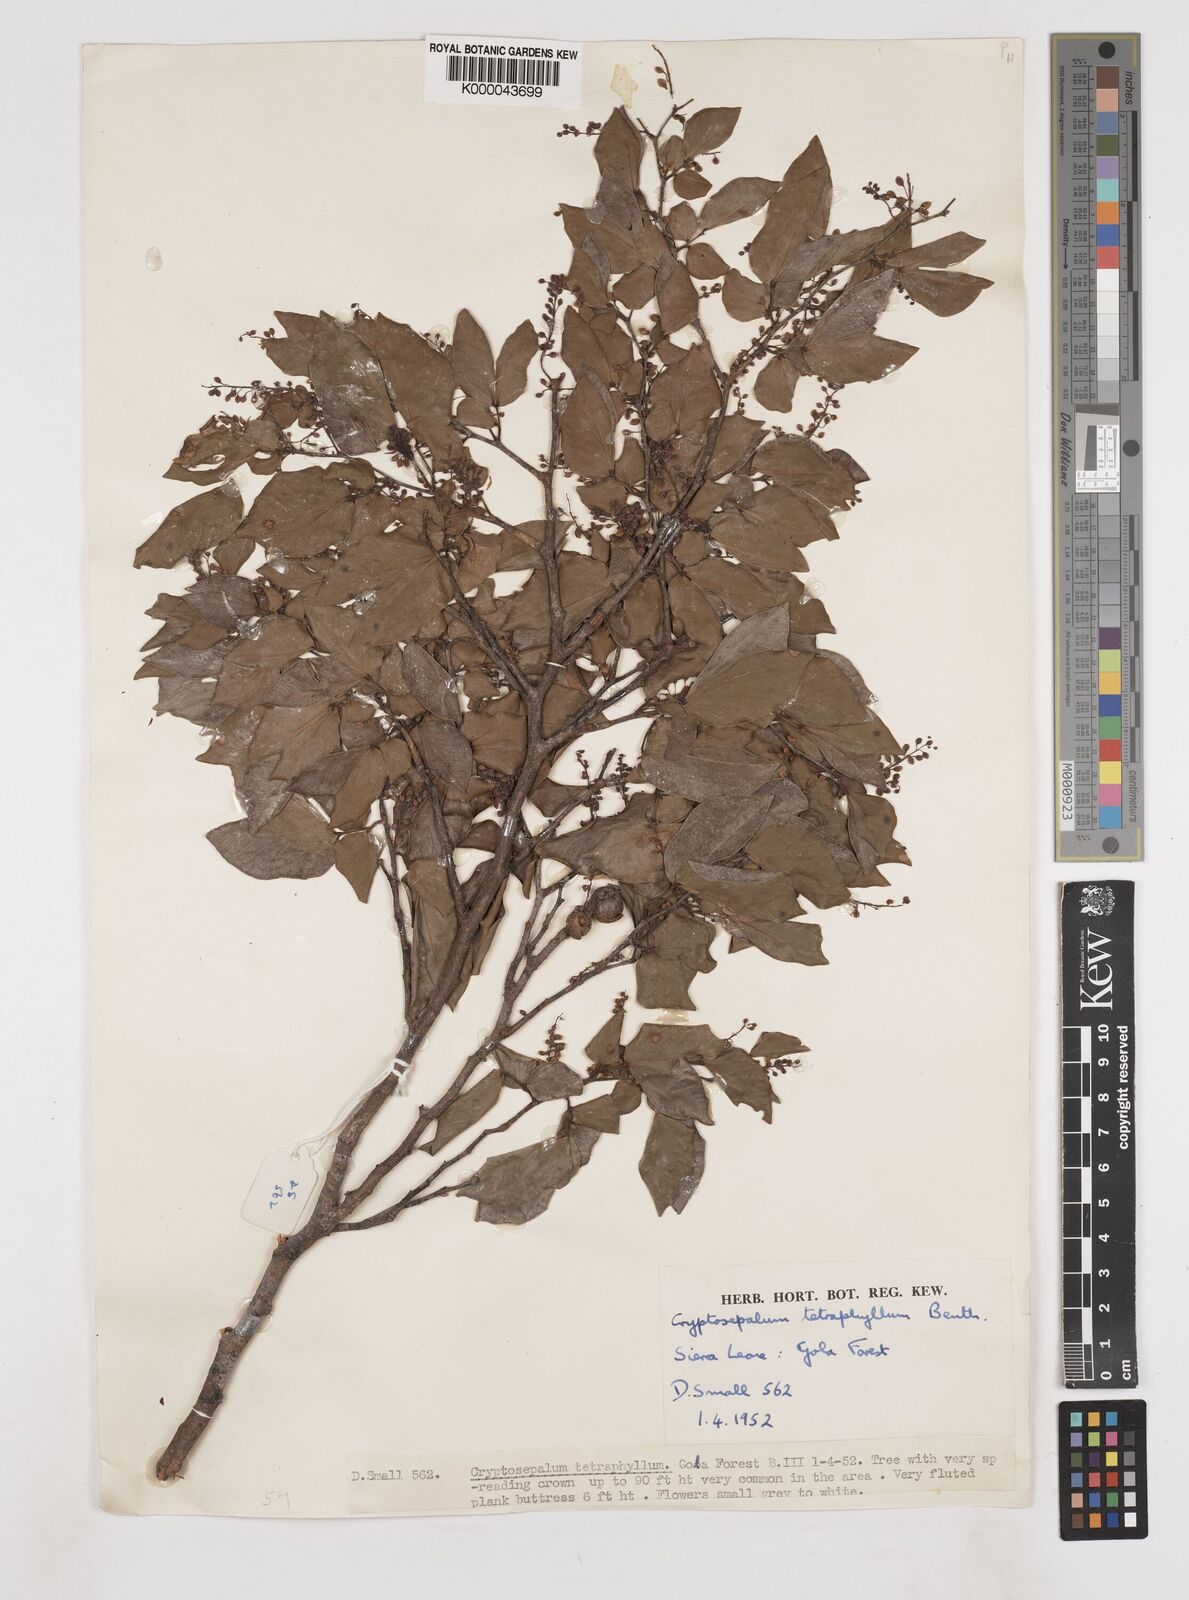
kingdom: Plantae
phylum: Tracheophyta
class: Magnoliopsida
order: Fabales
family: Fabaceae
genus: Cryptosepalum
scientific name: Cryptosepalum tetraphyllum
